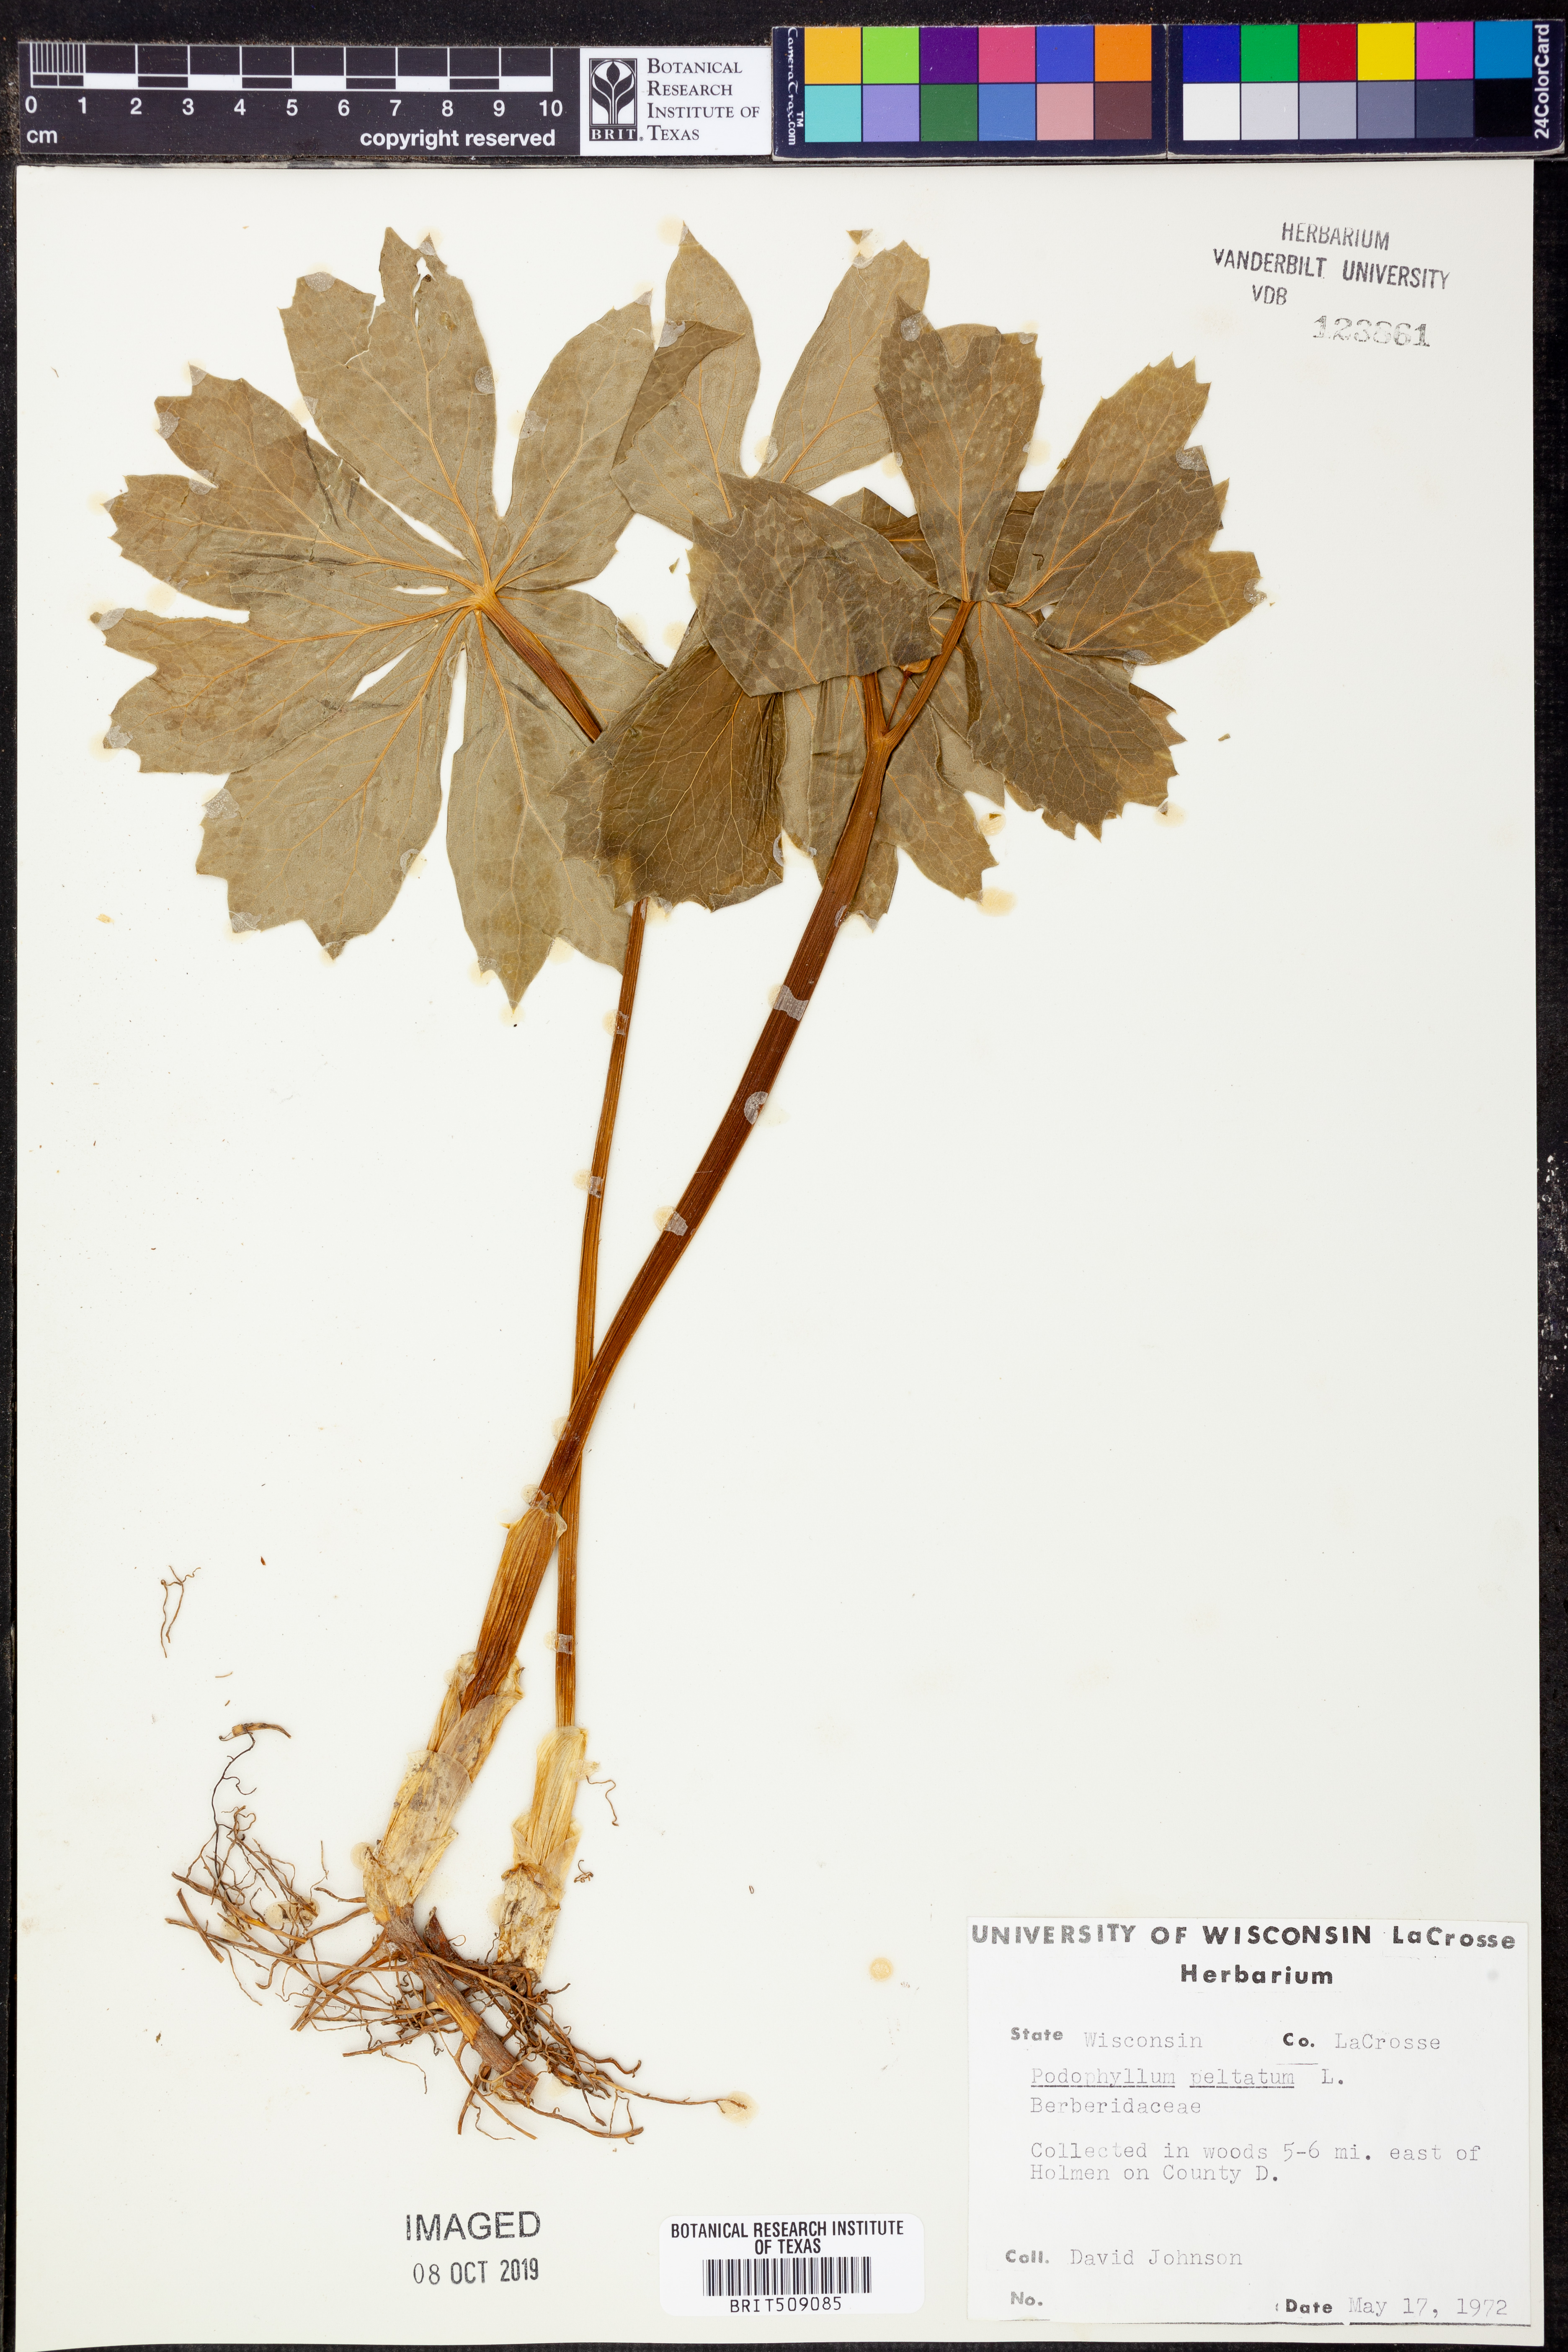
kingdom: Plantae
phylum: Tracheophyta
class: Magnoliopsida
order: Ranunculales
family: Berberidaceae
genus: Podophyllum
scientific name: Podophyllum peltatum
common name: Wild mandrake
